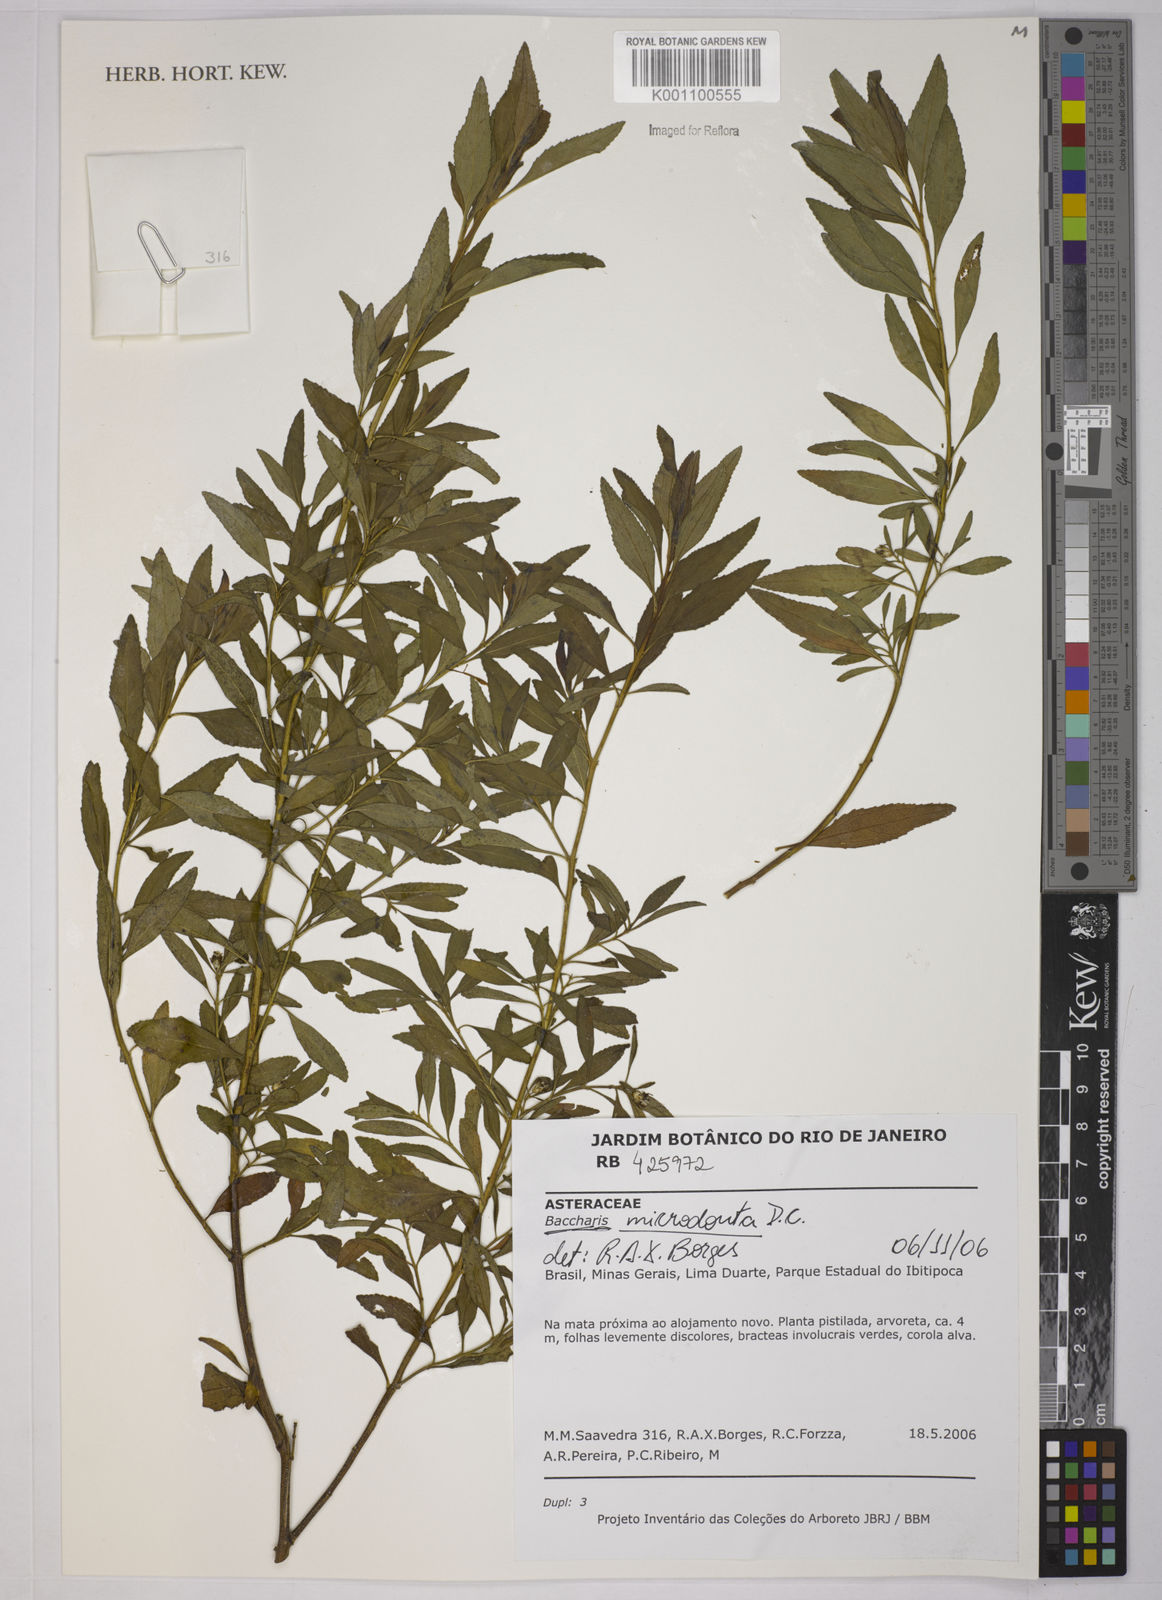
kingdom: Plantae
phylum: Tracheophyta
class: Magnoliopsida
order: Asterales
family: Asteraceae
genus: Baccharis
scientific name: Baccharis microdonta
